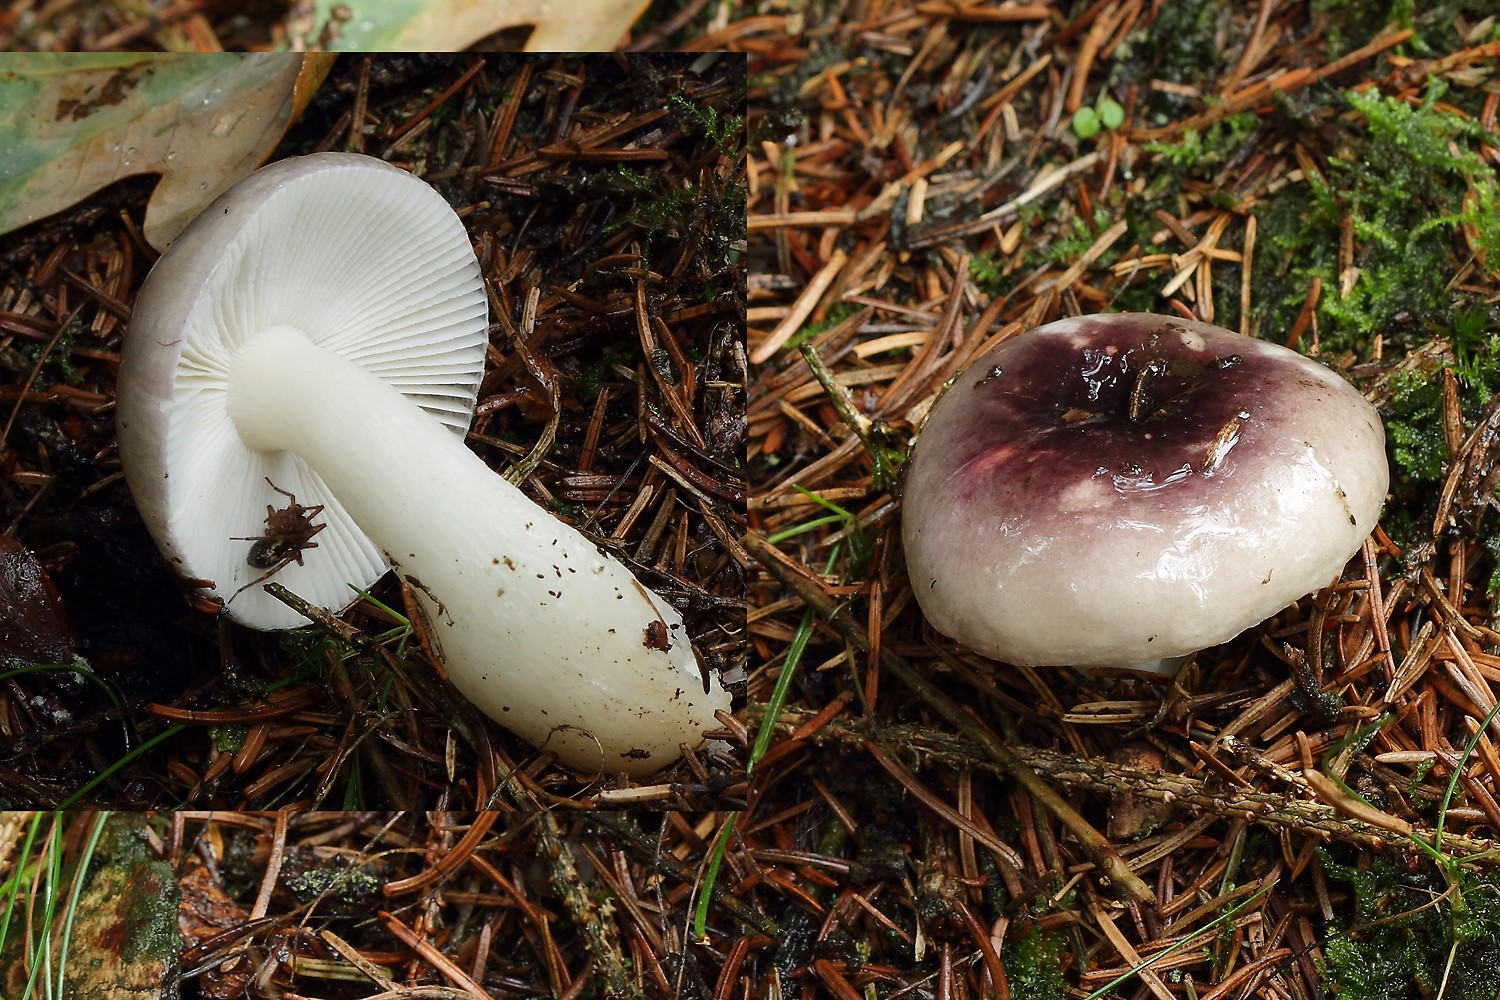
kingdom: Fungi
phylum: Basidiomycota
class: Agaricomycetes
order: Russulales
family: Russulaceae
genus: Russula
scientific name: Russula fragilis
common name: savbladet skørhat
